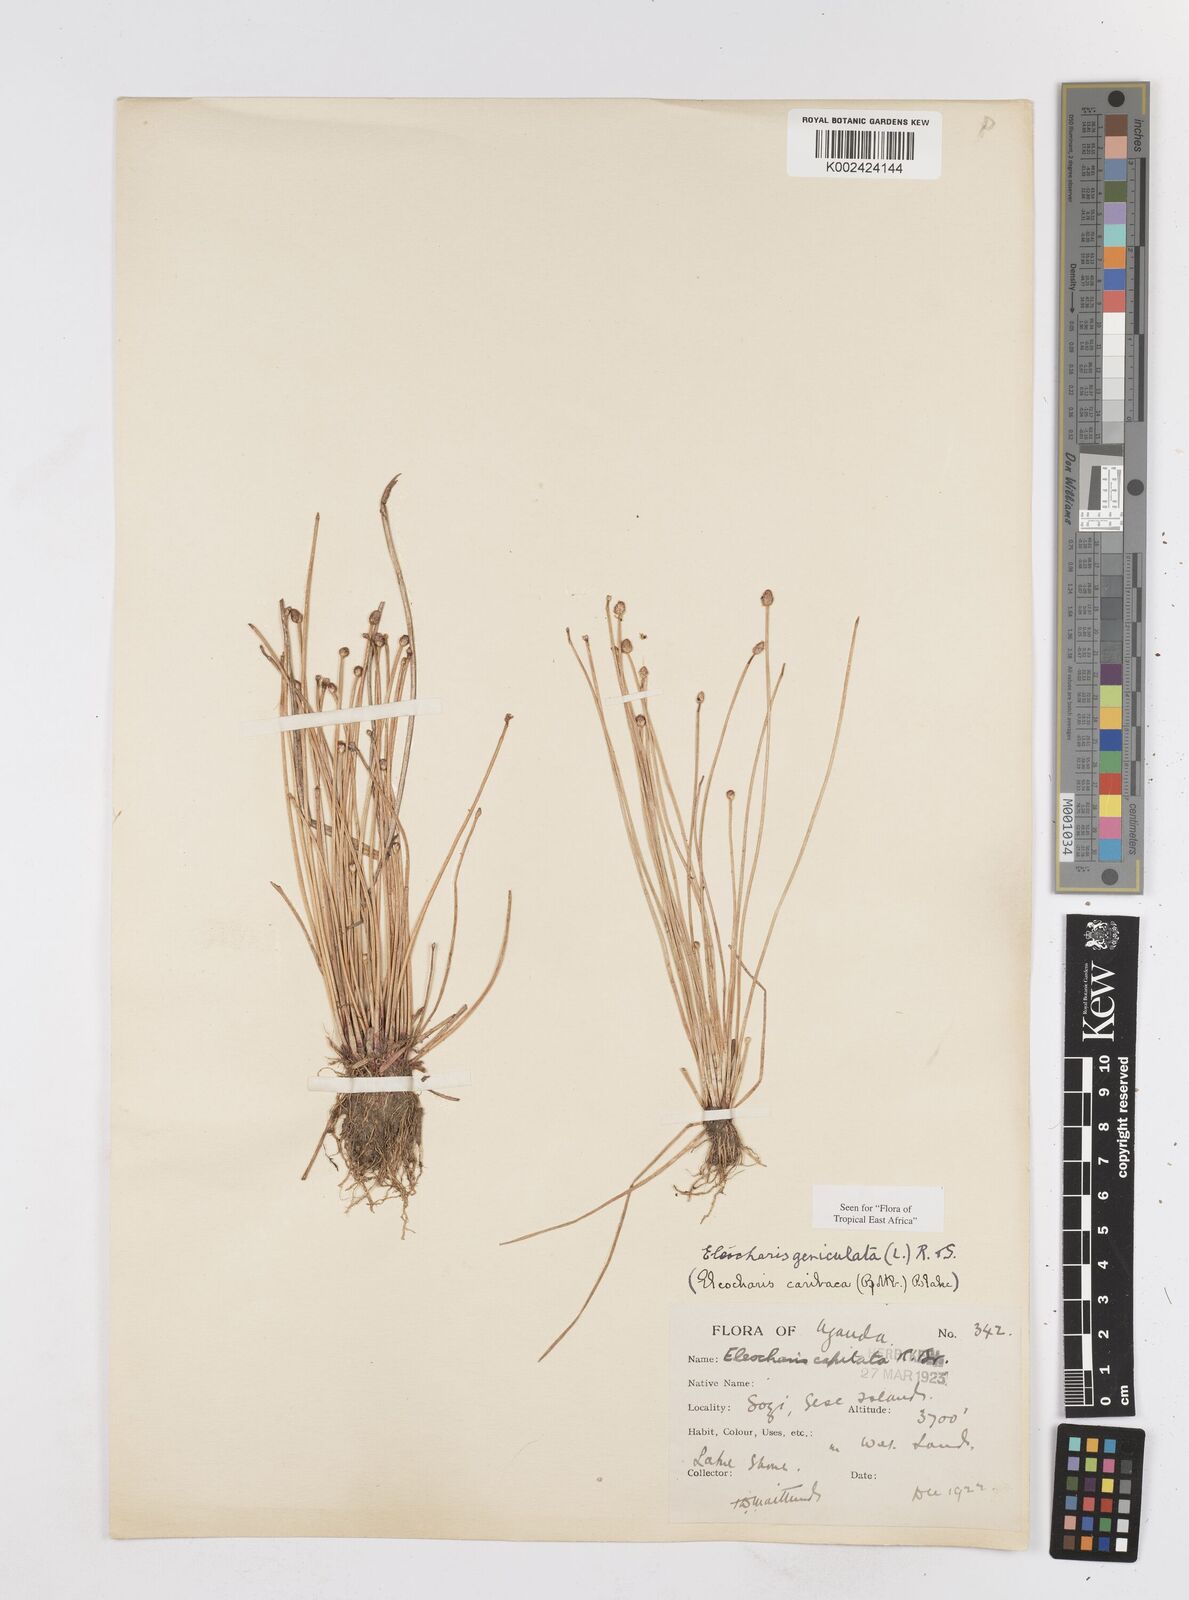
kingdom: Plantae
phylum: Tracheophyta
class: Liliopsida
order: Poales
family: Cyperaceae
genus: Eleocharis
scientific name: Eleocharis geniculata
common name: Canada spikesedge
